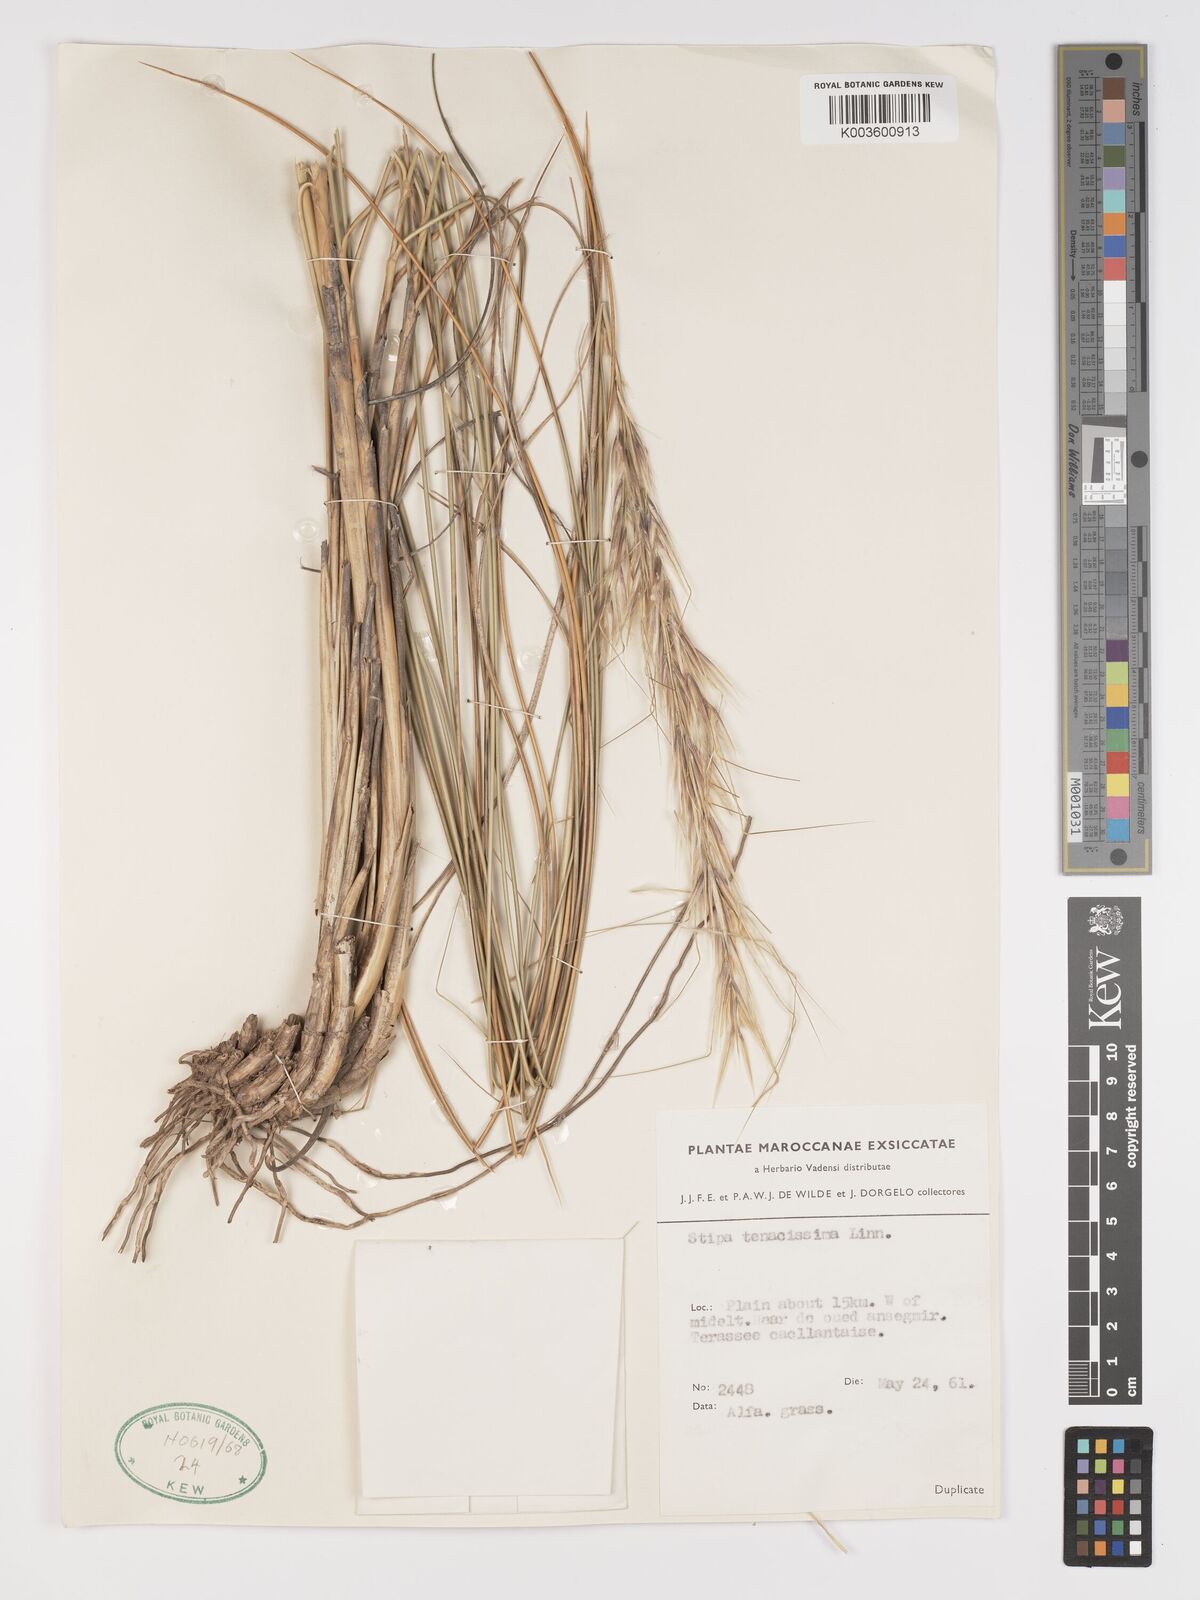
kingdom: Plantae
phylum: Tracheophyta
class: Liliopsida
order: Poales
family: Poaceae
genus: Macrochloa
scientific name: Macrochloa tenacissima
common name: Alfa grass
